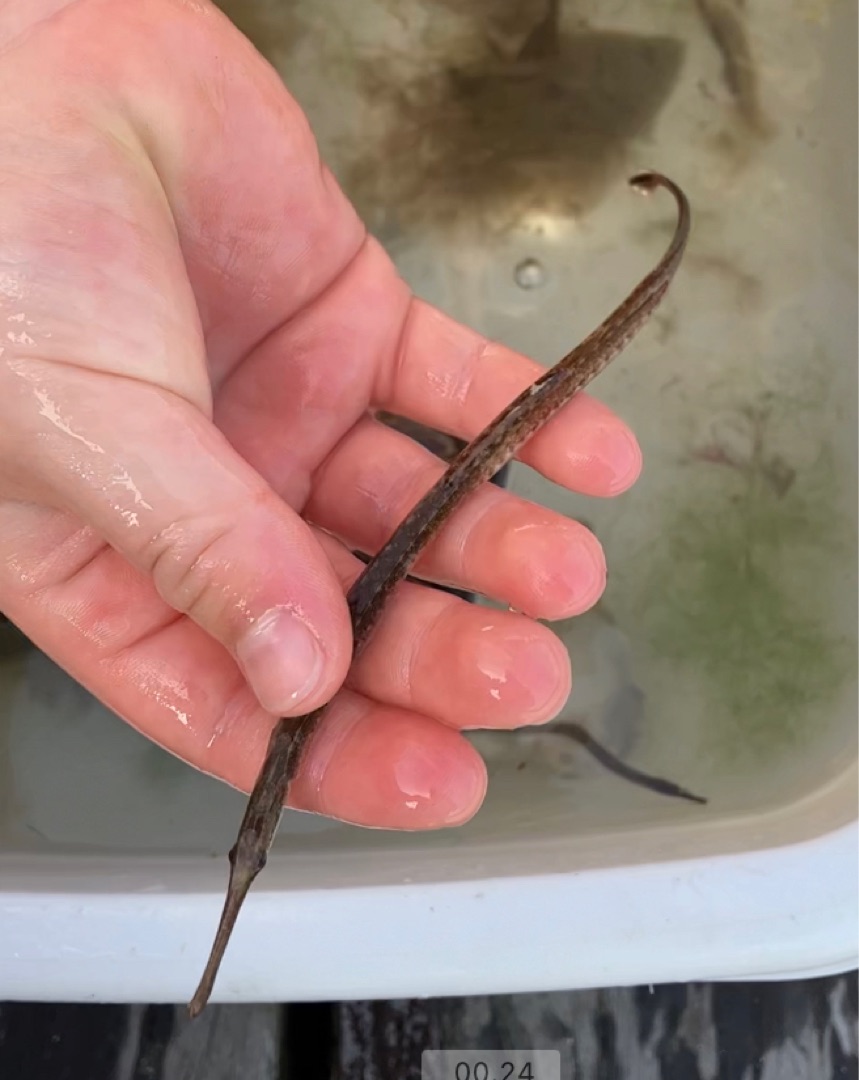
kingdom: Animalia
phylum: Chordata
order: Syngnathiformes
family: Syngnathidae
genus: Syngnathus
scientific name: Syngnathus typhle
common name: Almindelig tangnål
